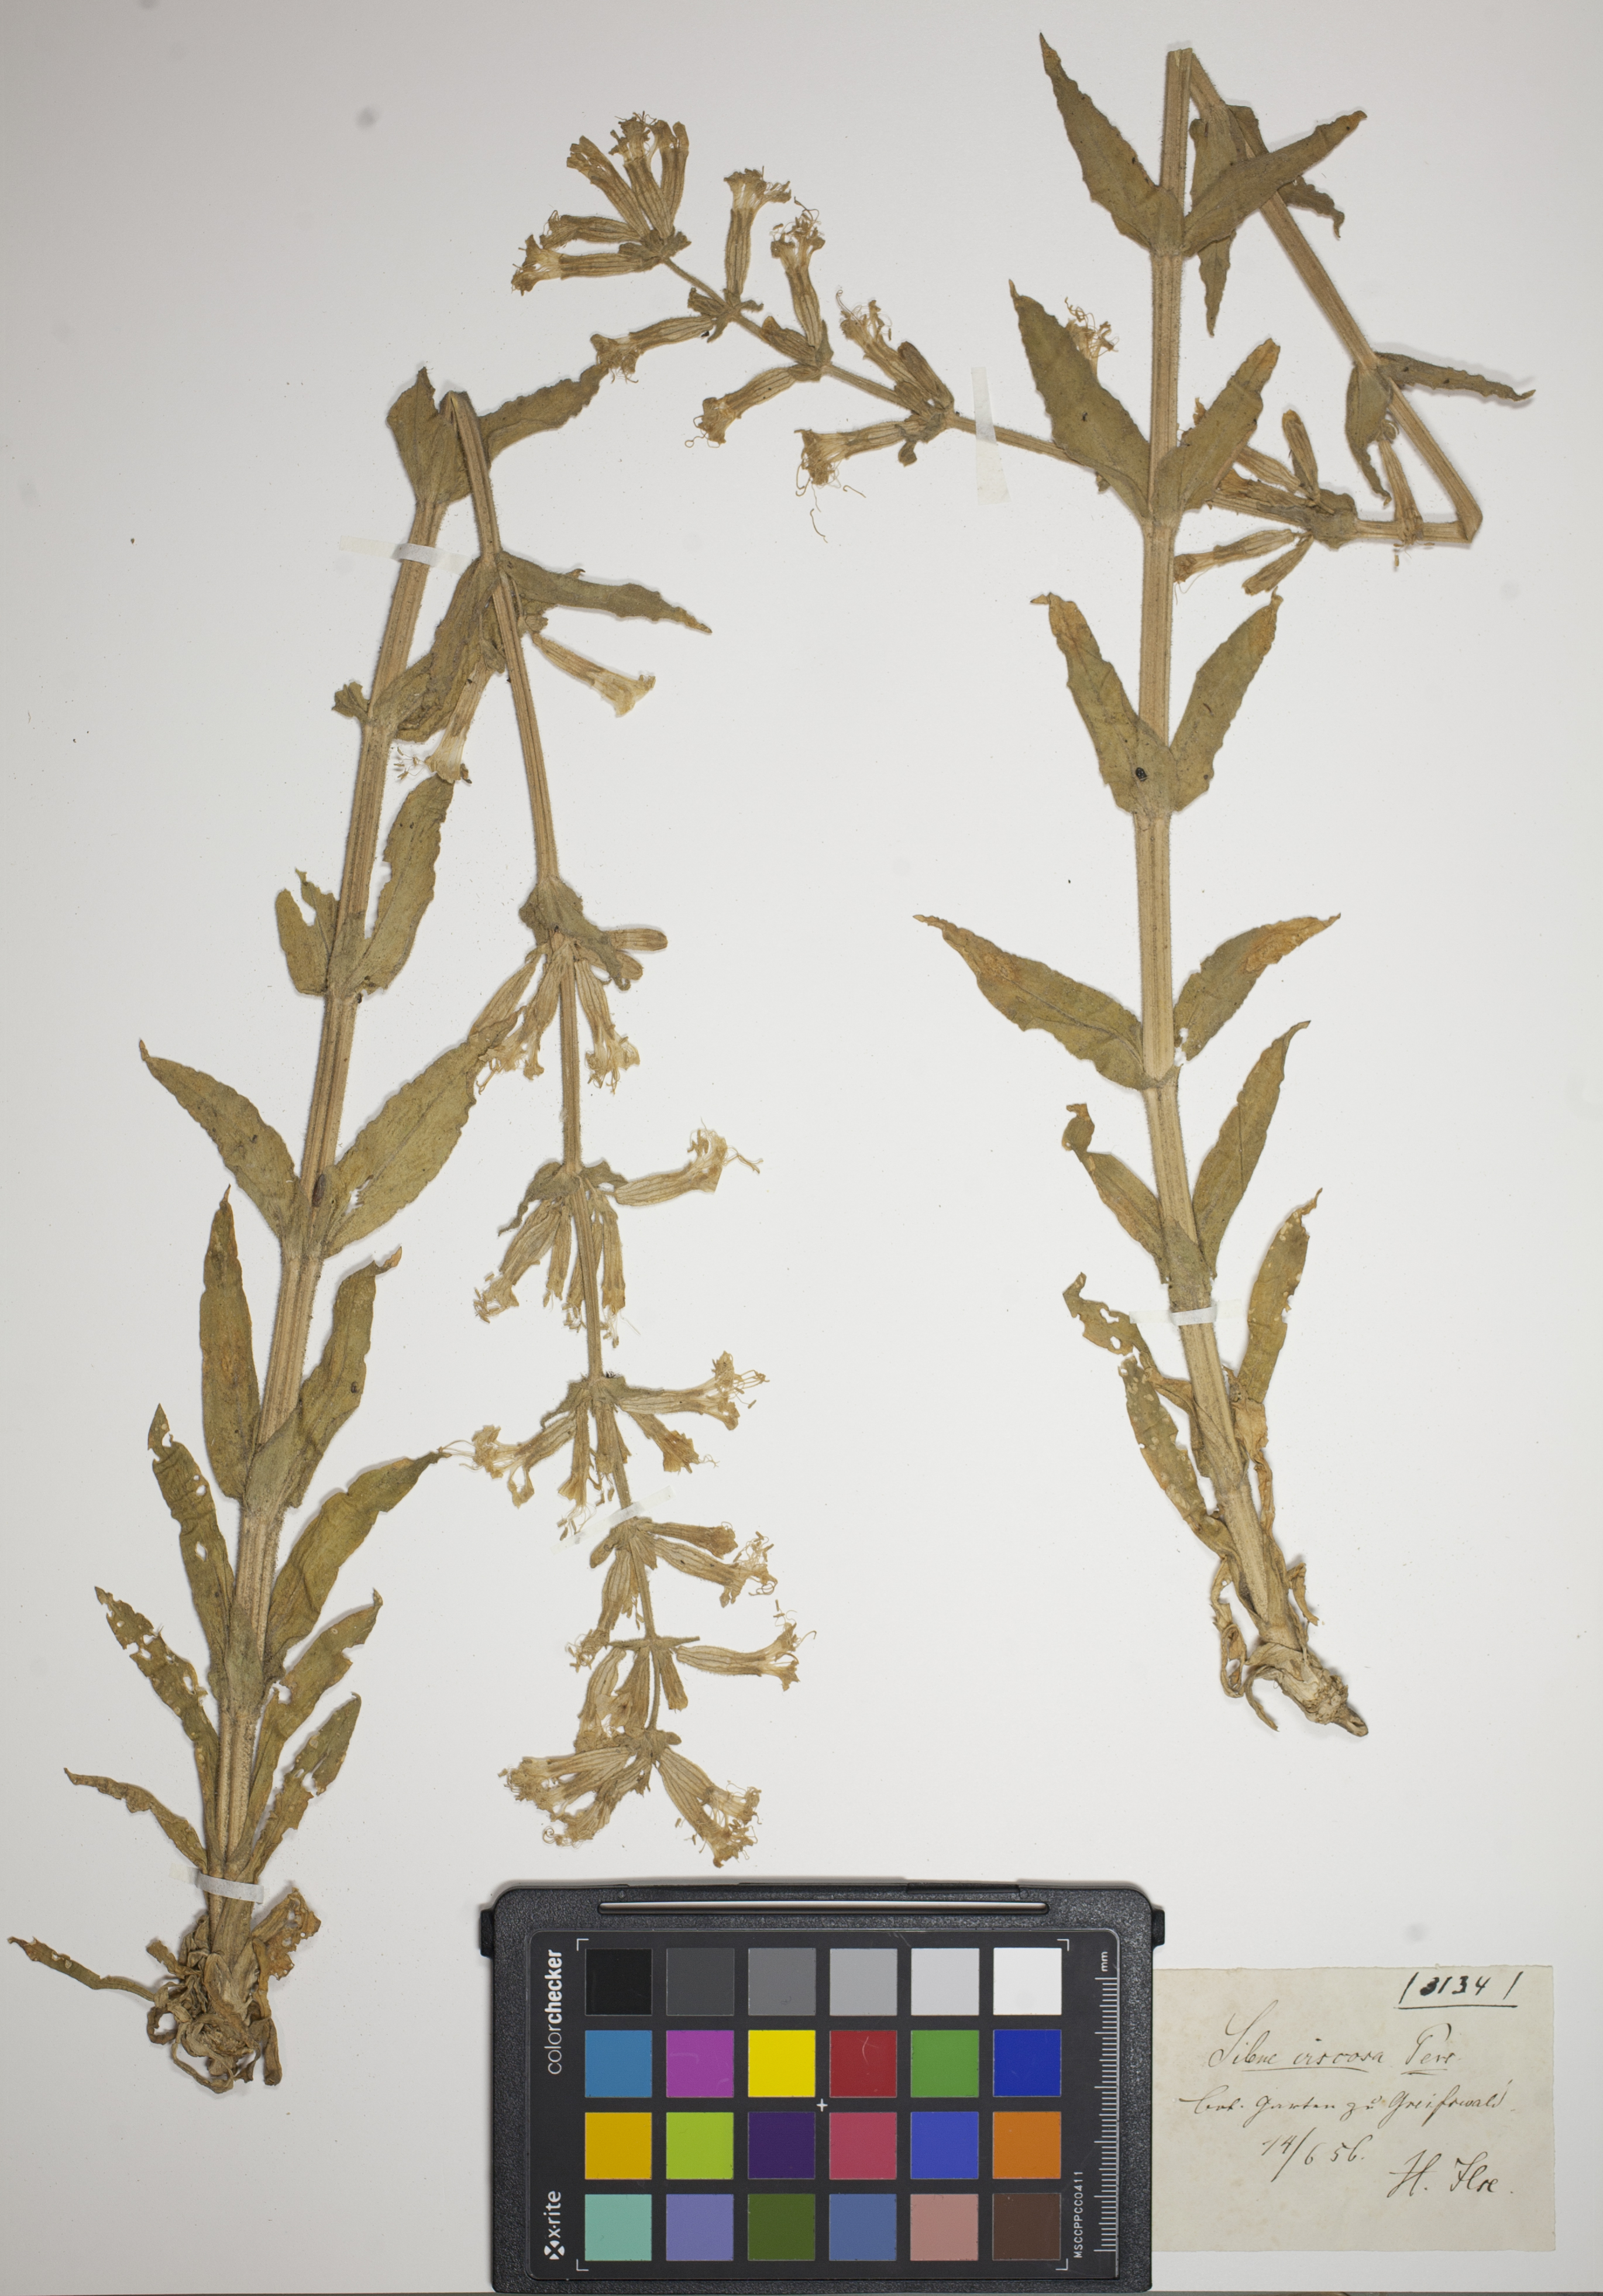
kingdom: Plantae
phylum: Tracheophyta
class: Magnoliopsida
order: Caryophyllales
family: Caryophyllaceae
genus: Silene
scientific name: Silene viscosa
